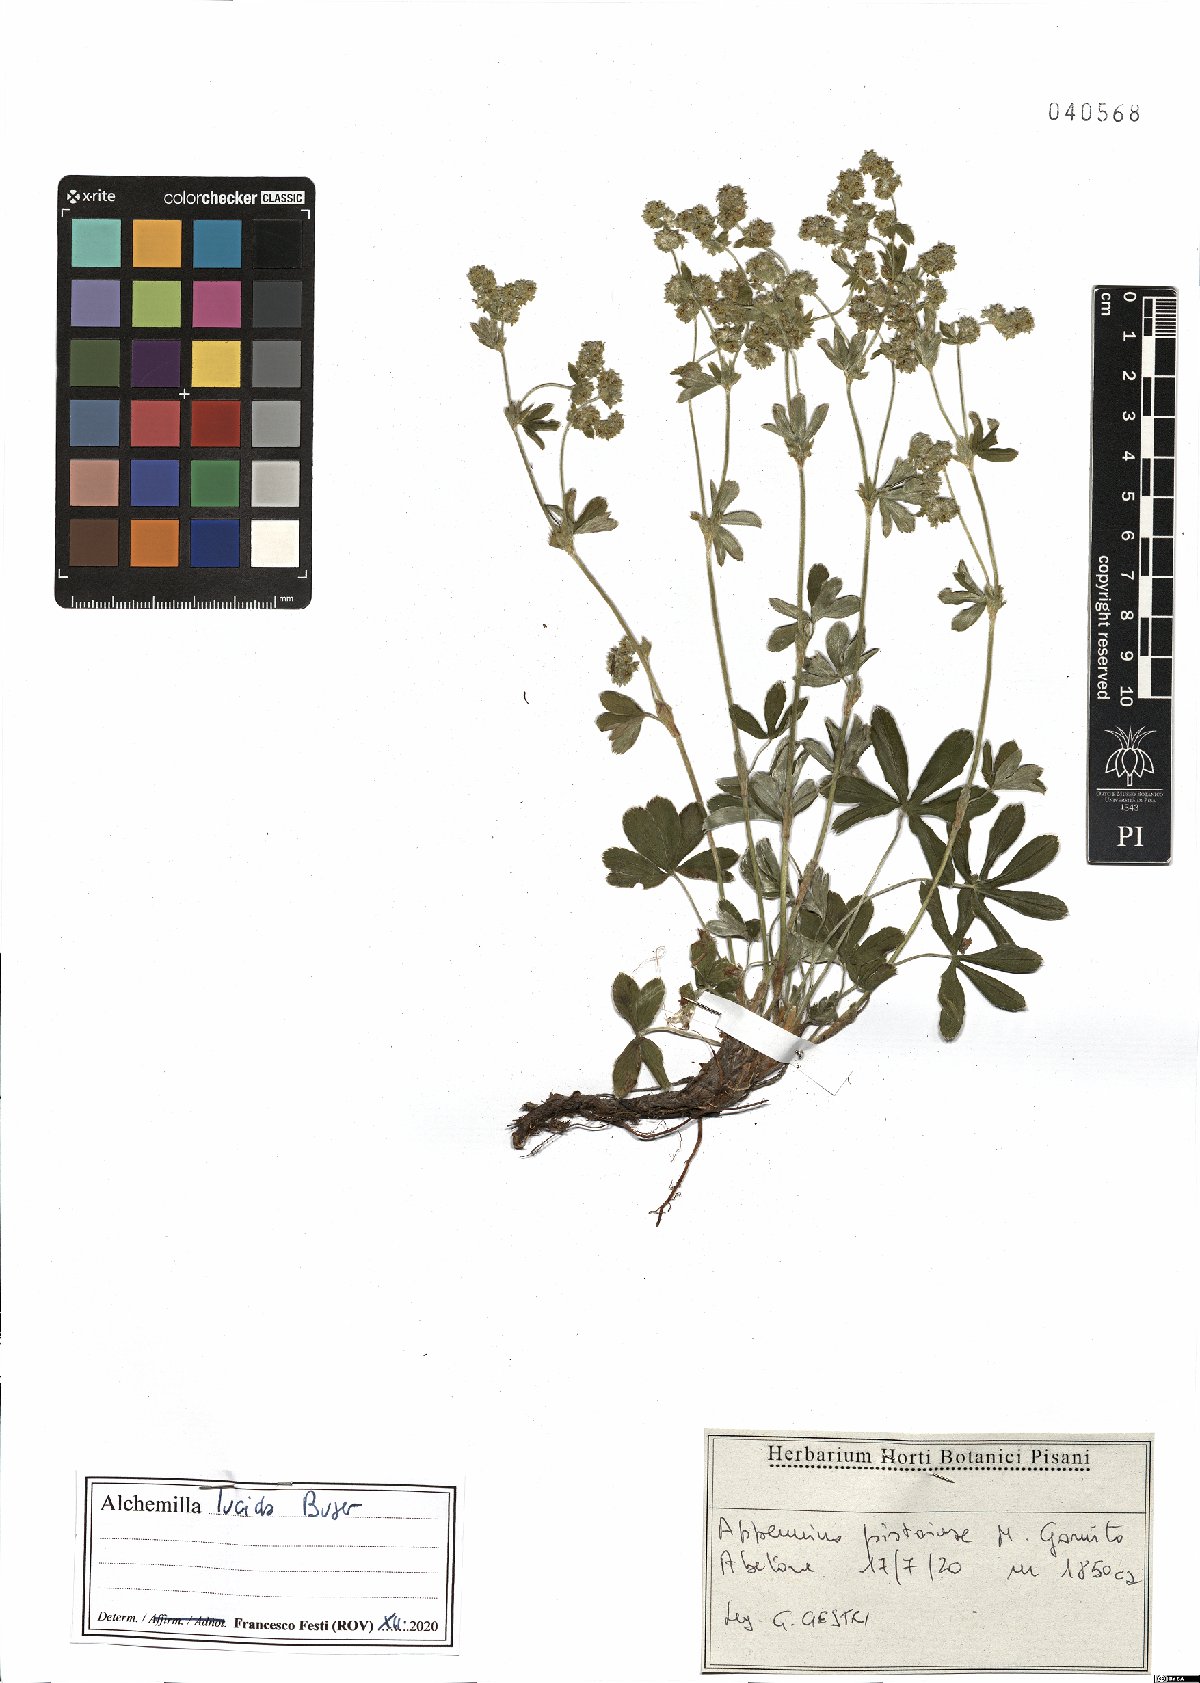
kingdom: Plantae
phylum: Tracheophyta
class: Magnoliopsida
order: Rosales
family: Rosaceae
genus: Alchemilla
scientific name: Alchemilla lucida
